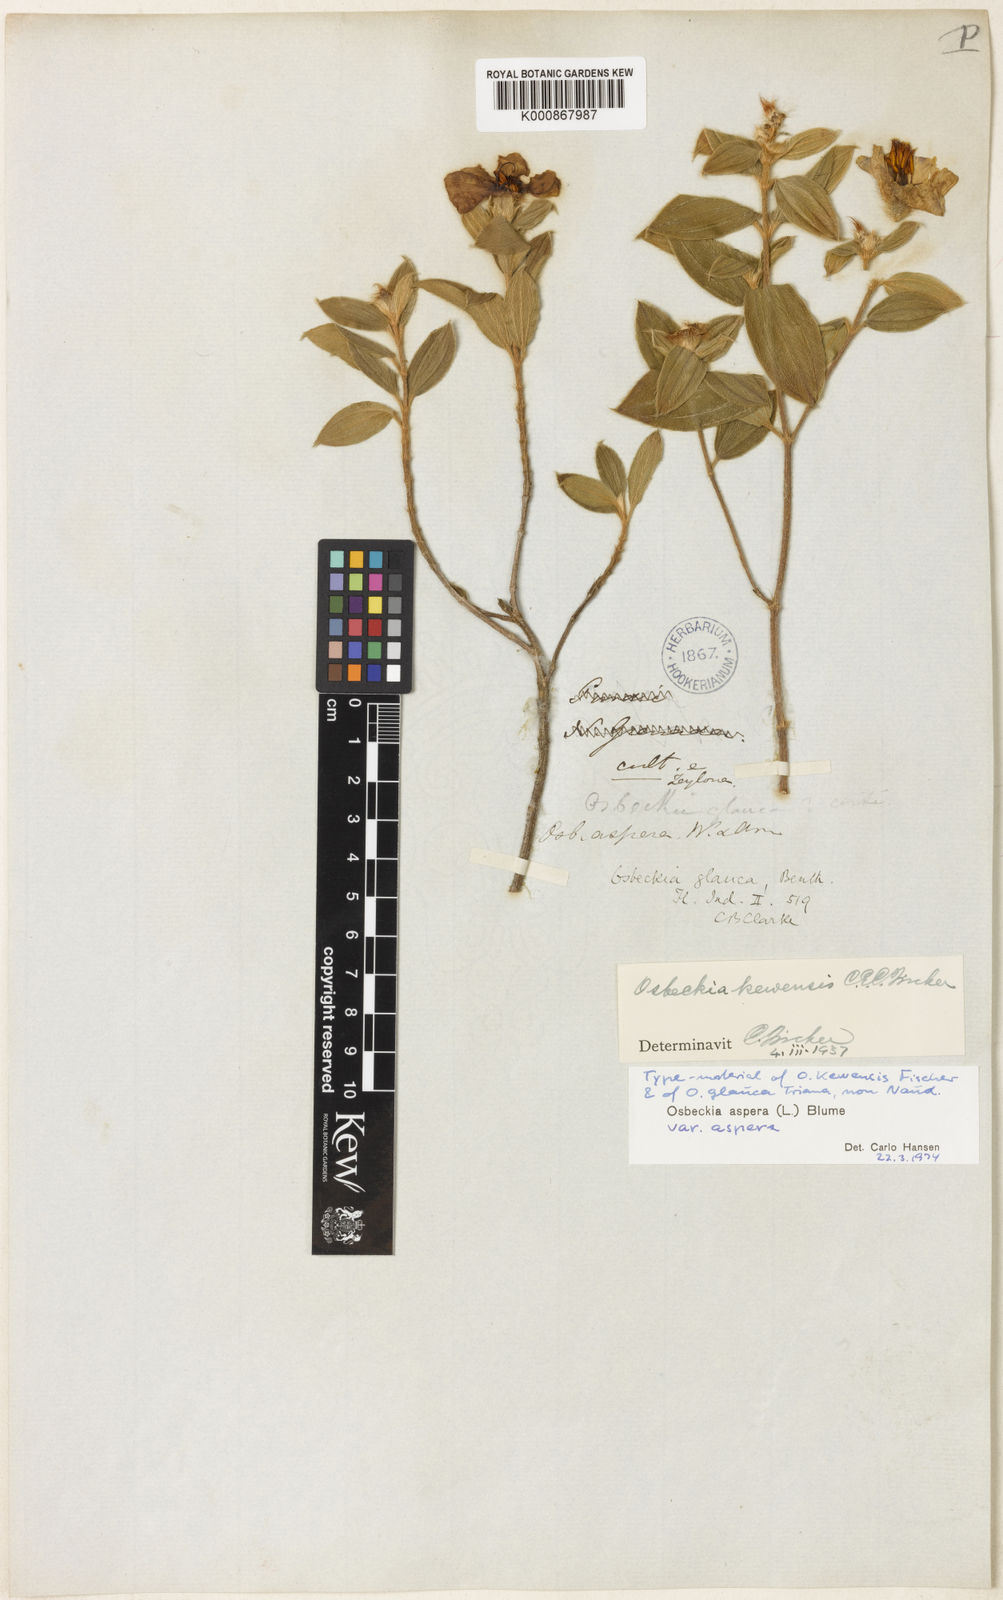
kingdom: Plantae
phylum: Tracheophyta
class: Magnoliopsida
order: Myrtales
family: Melastomataceae
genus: Osbeckia
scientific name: Osbeckia aspera
